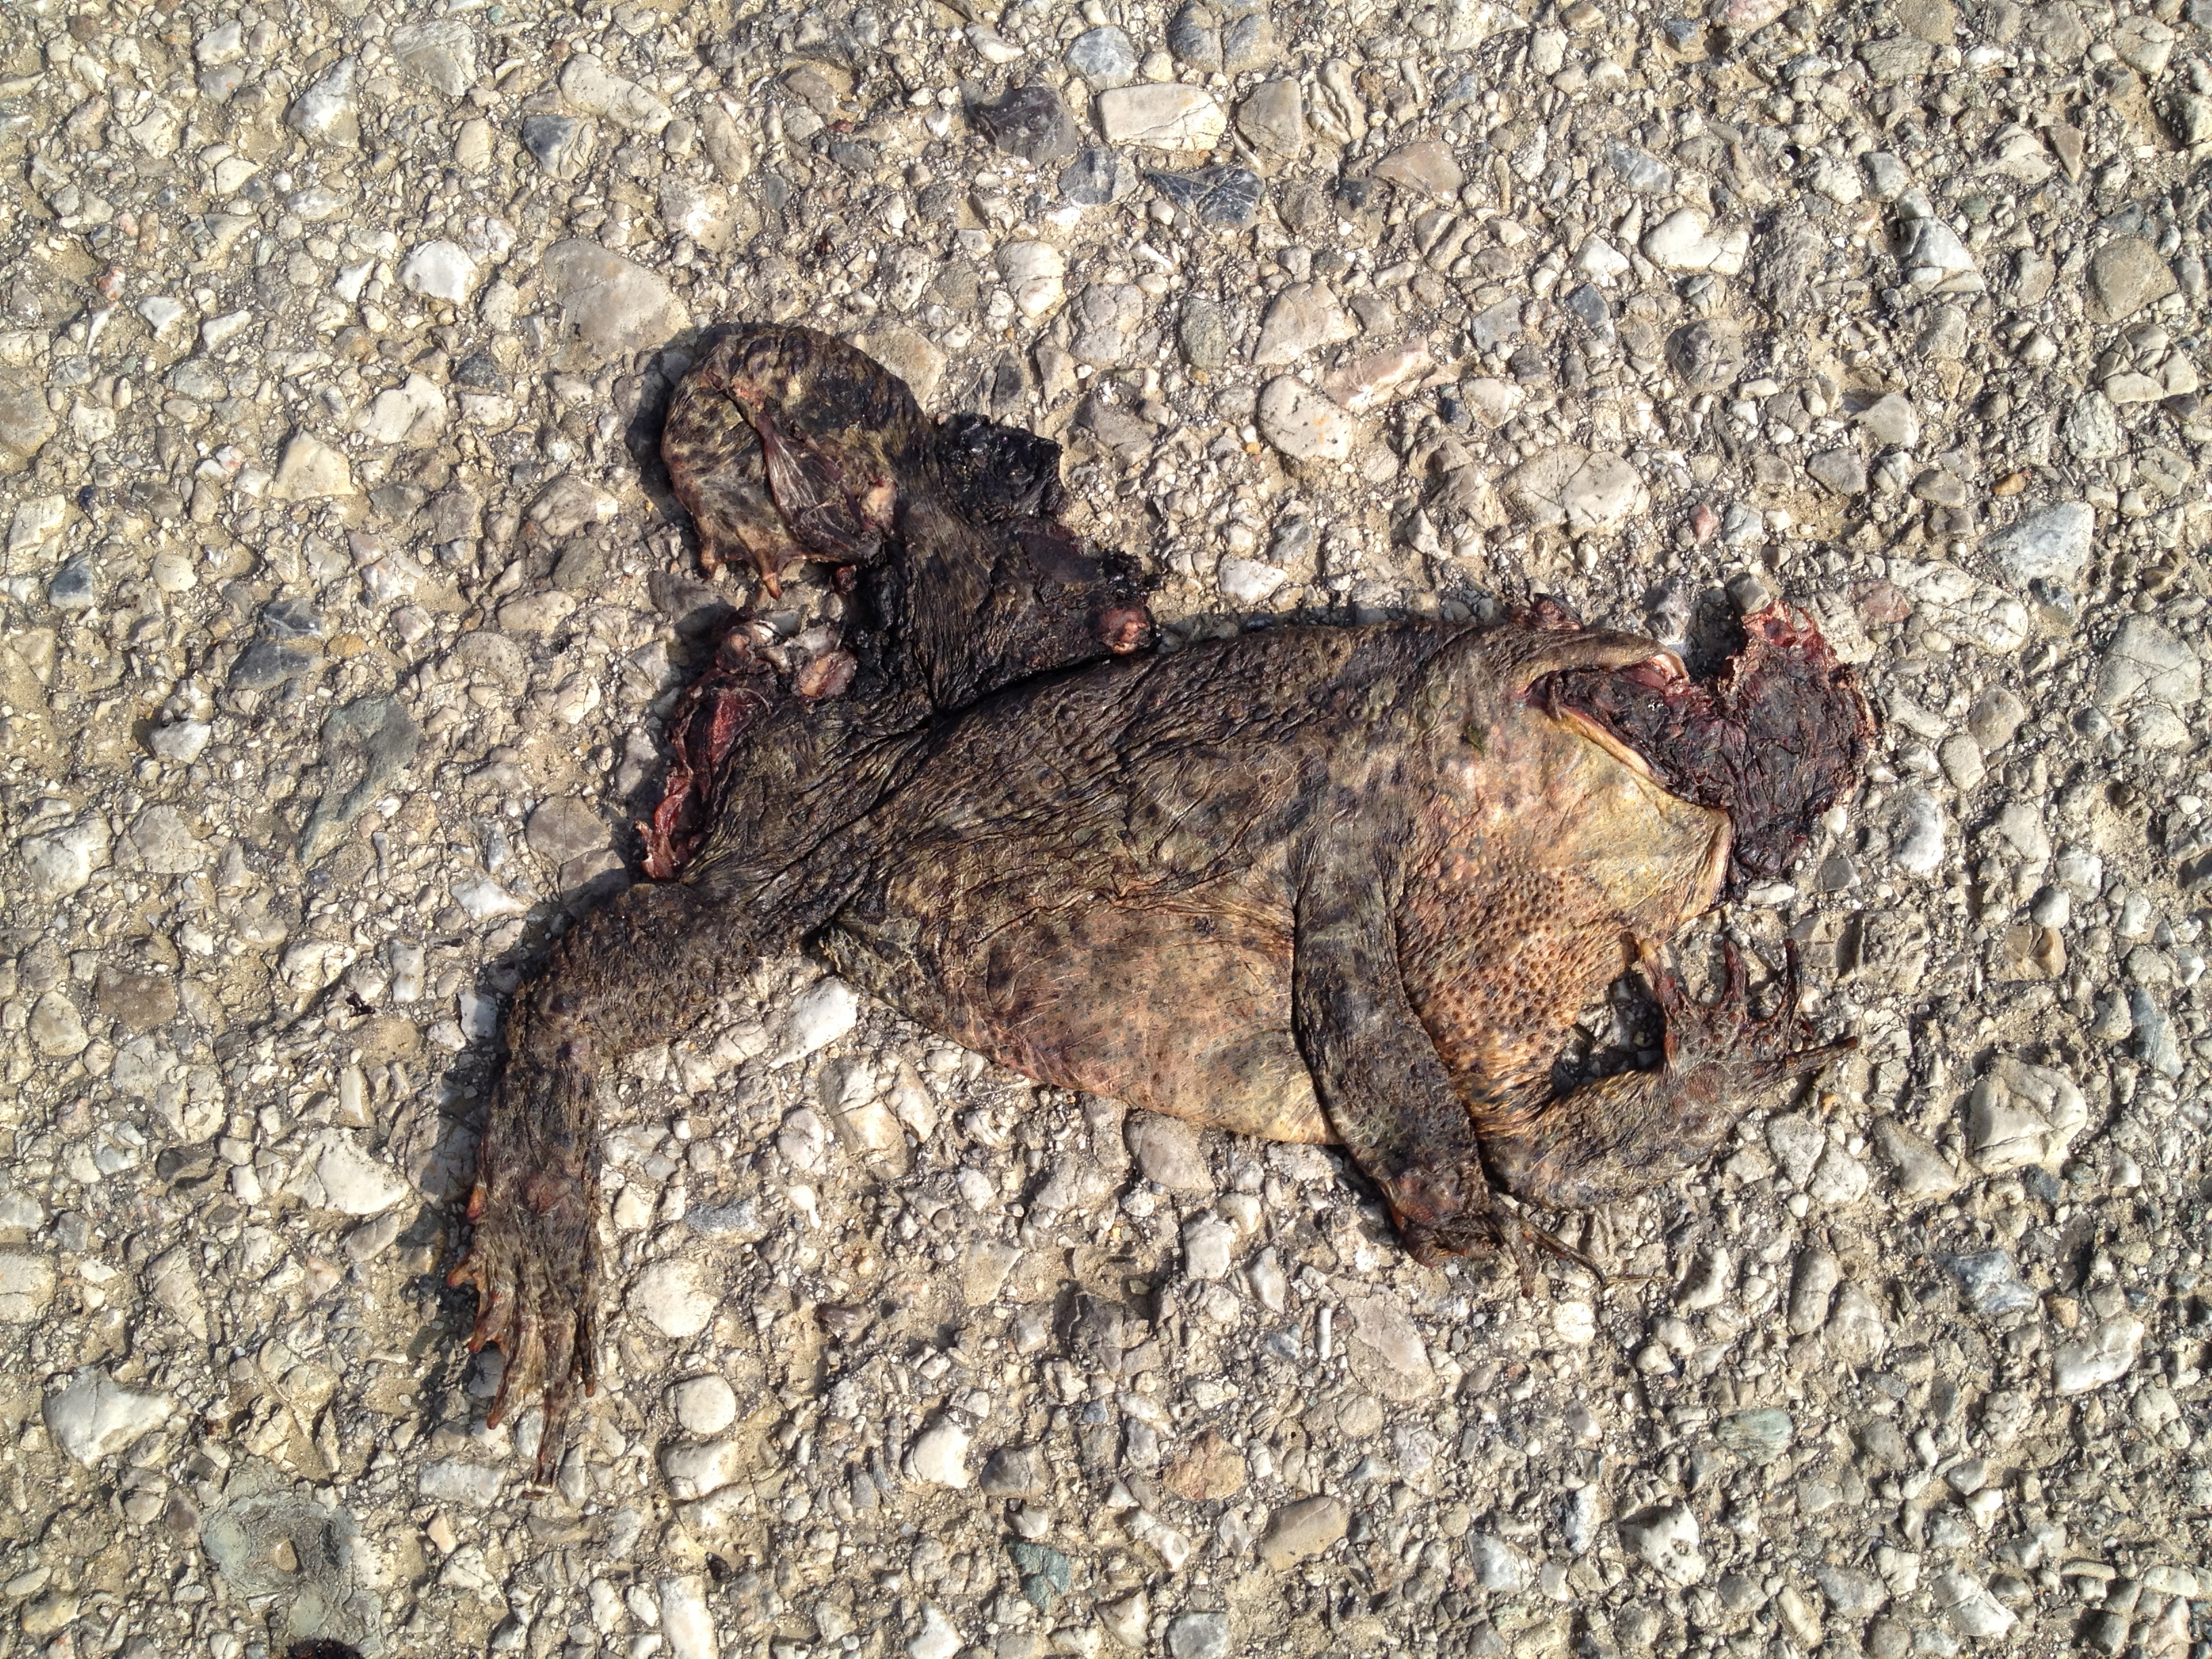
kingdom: Animalia
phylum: Chordata
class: Amphibia
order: Anura
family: Bufonidae
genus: Bufo
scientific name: Bufo bufo
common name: Common toad
